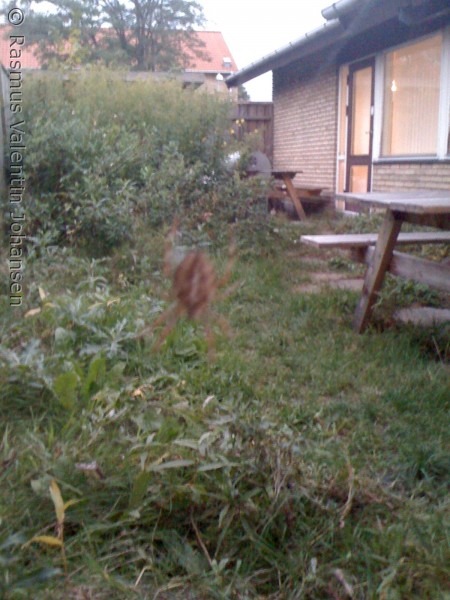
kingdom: Animalia
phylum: Arthropoda
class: Arachnida
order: Araneae
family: Araneidae
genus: Araneus
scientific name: Araneus diadematus
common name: Korsedderkop
